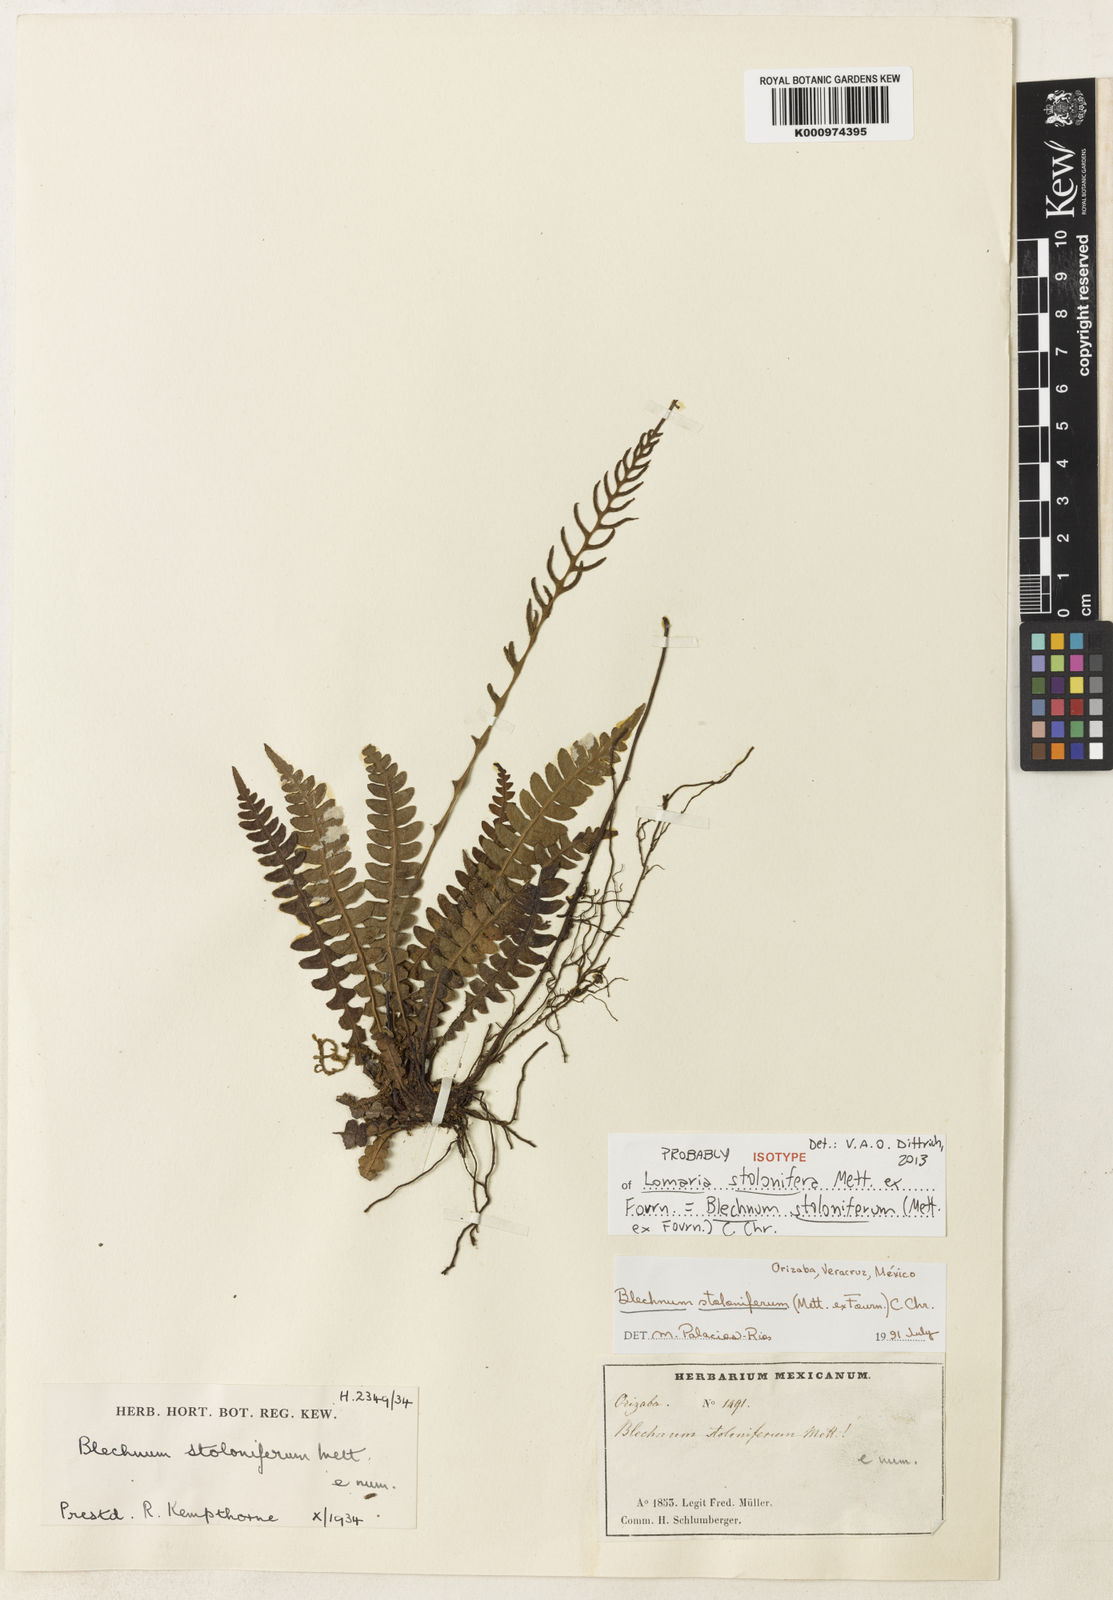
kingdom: Plantae
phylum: Tracheophyta
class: Polypodiopsida
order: Polypodiales
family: Blechnaceae
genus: Blechnum
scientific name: Blechnum
